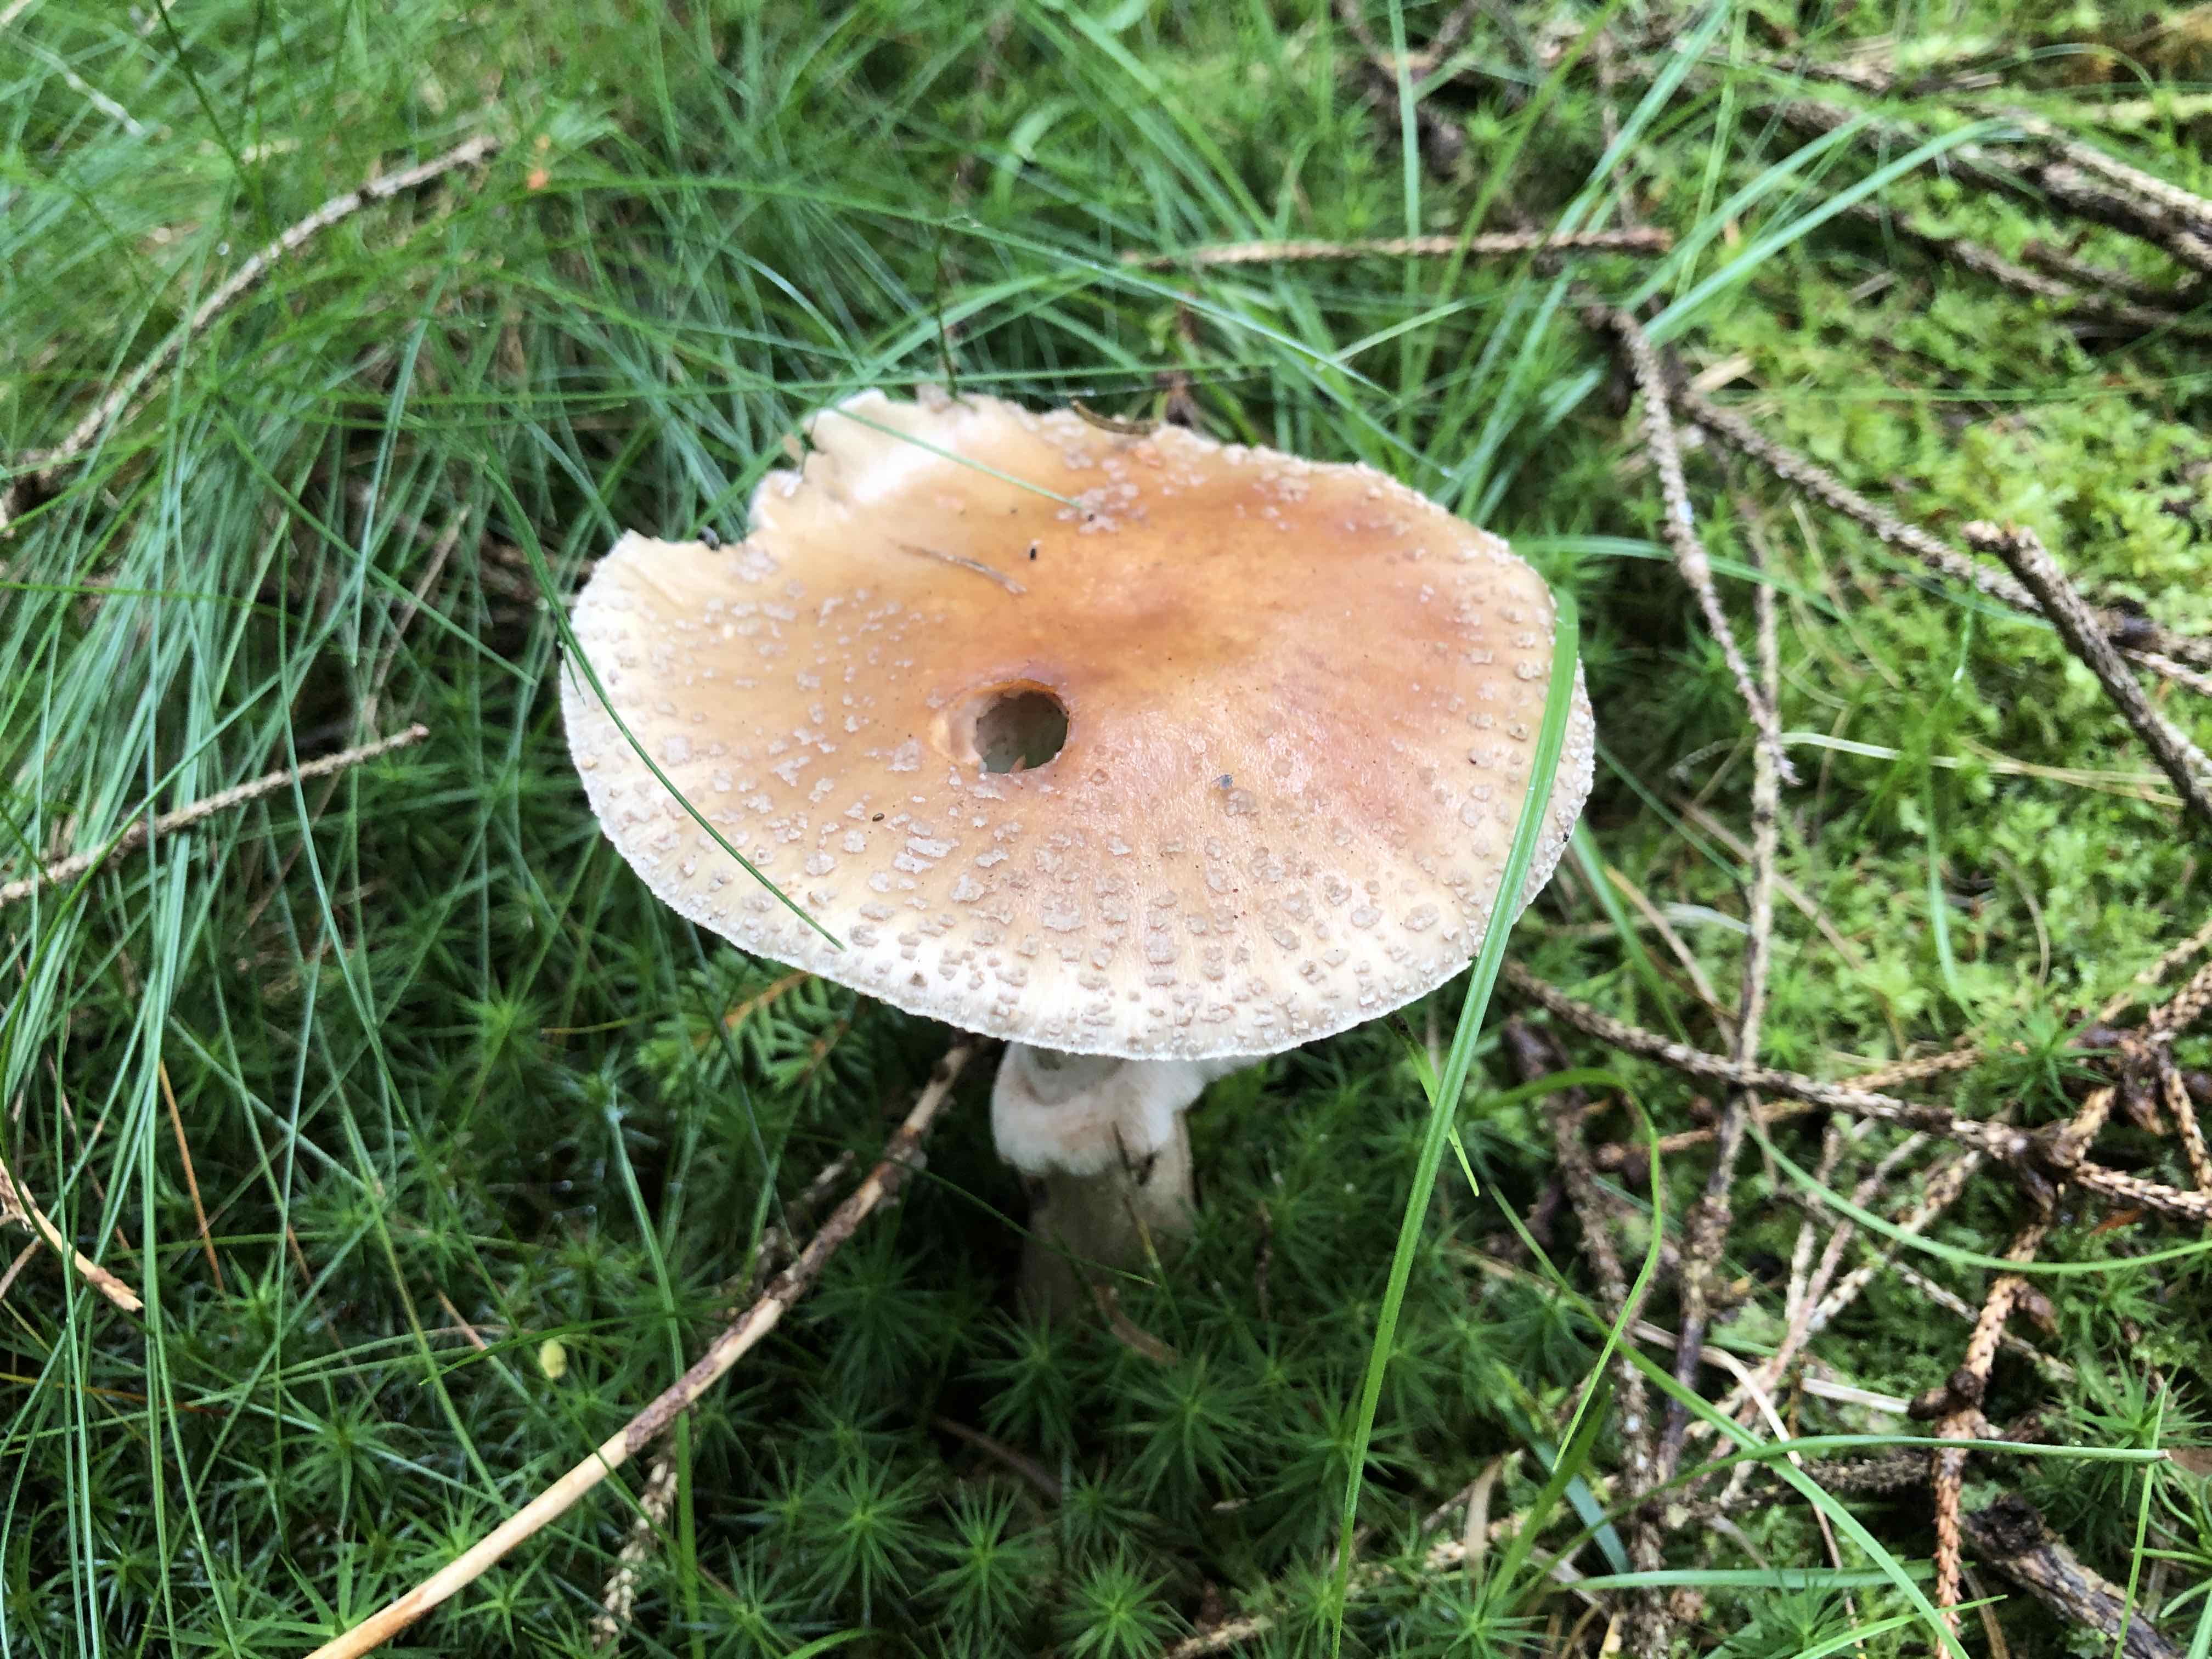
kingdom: Fungi
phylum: Basidiomycota
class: Agaricomycetes
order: Agaricales
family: Amanitaceae
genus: Amanita
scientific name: Amanita rubescens
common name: rødmende fluesvamp
